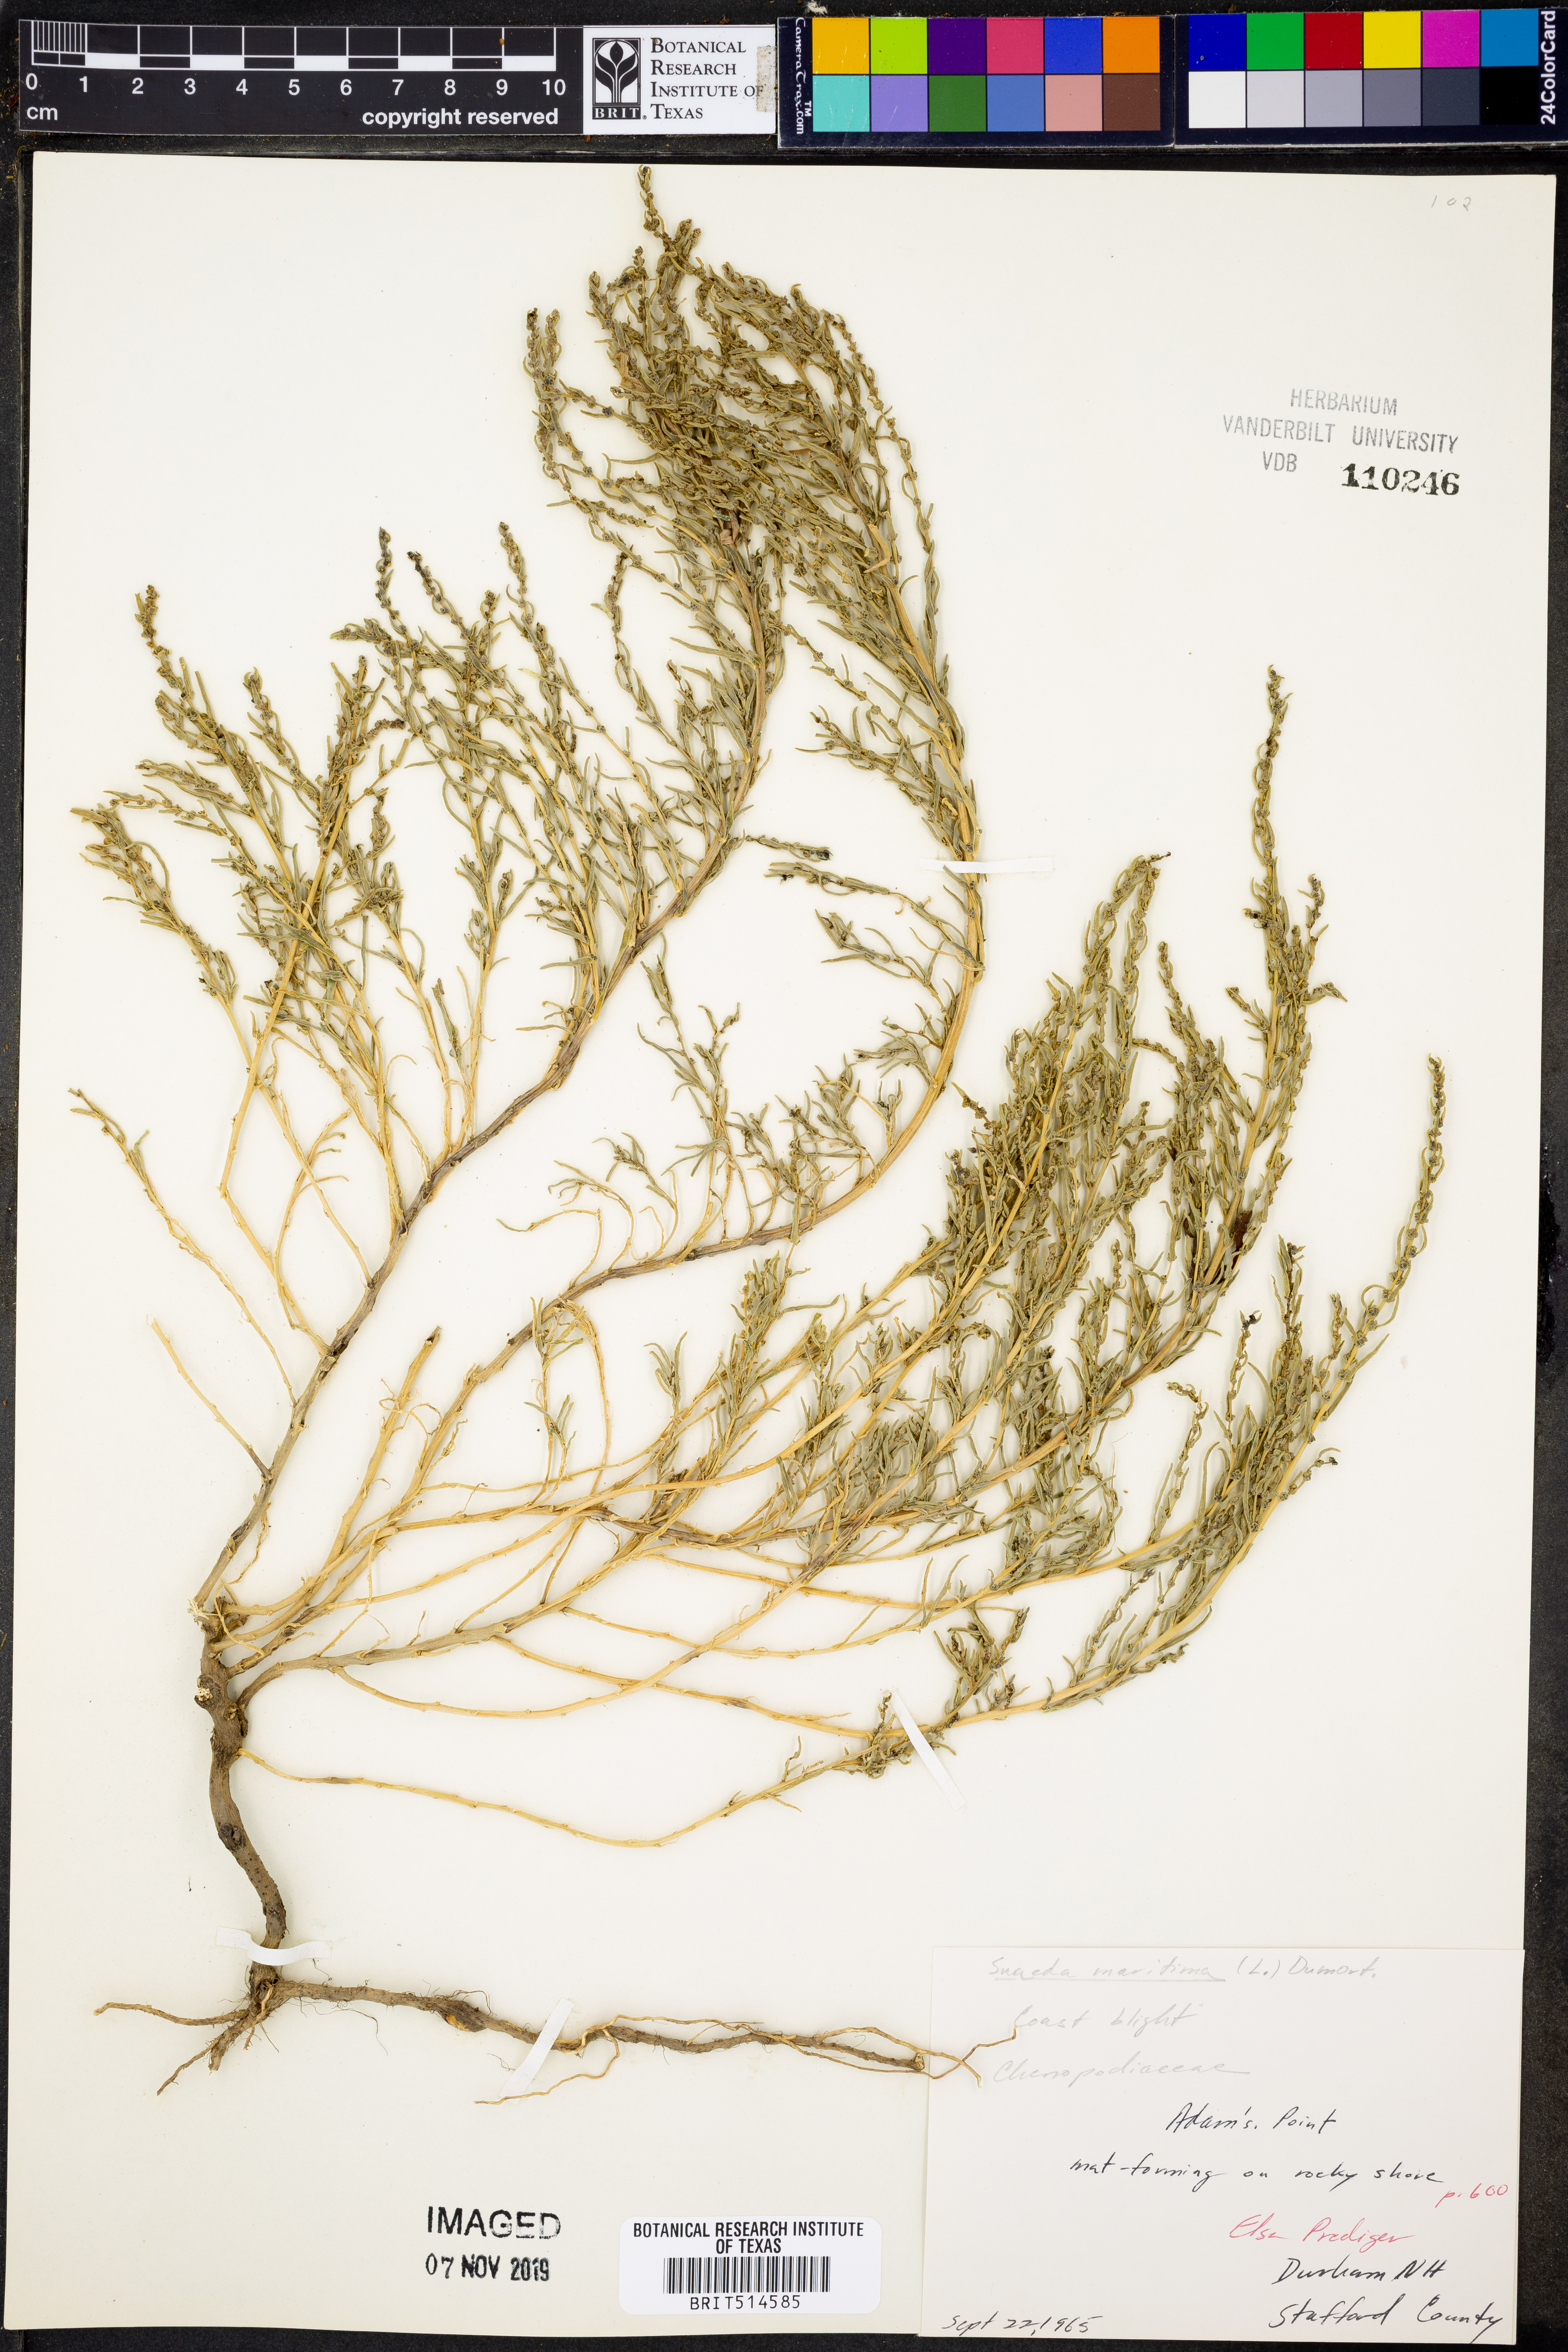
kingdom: Plantae
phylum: Tracheophyta
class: Magnoliopsida
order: Caryophyllales
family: Amaranthaceae
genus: Suaeda
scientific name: Suaeda maritima
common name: Annual sea-blite
